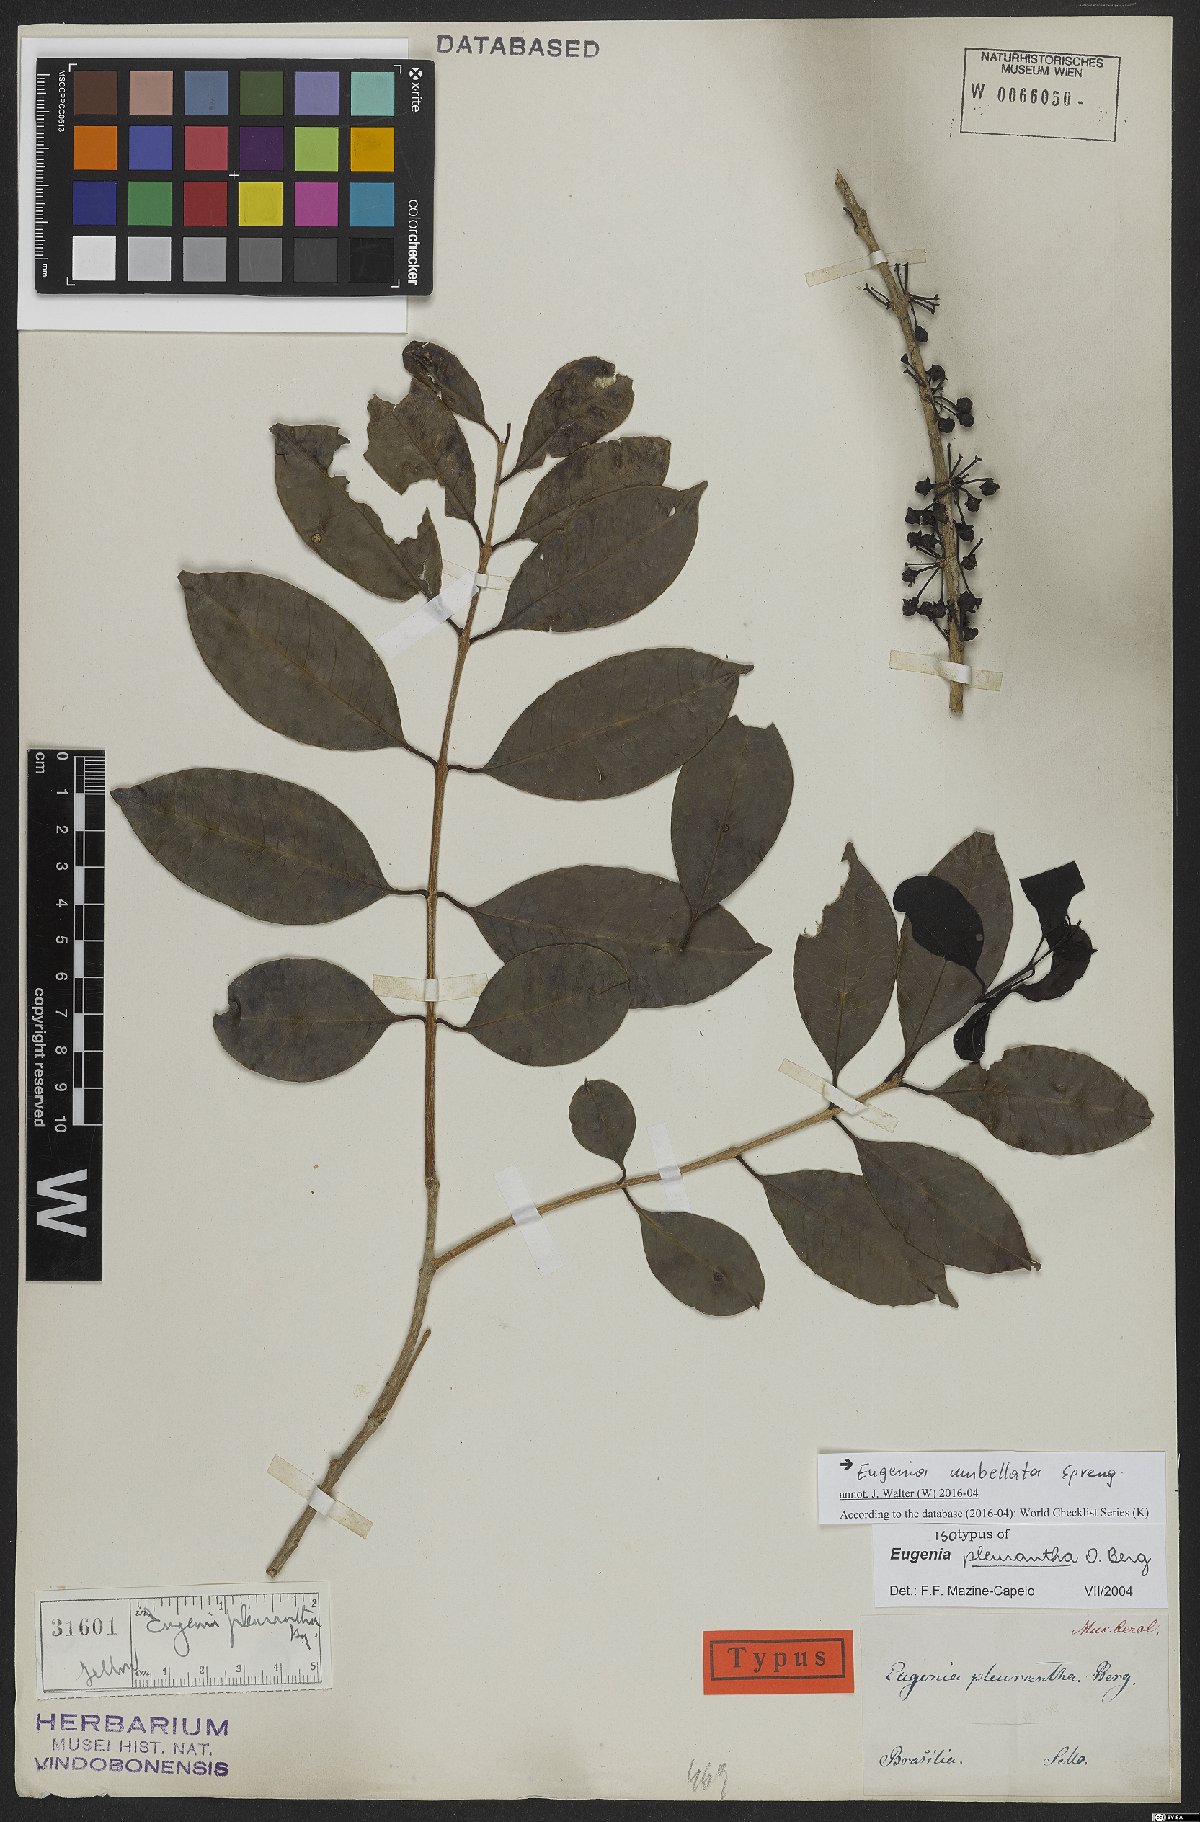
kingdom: Plantae
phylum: Tracheophyta
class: Magnoliopsida
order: Myrtales
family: Myrtaceae
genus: Eugenia
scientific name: Eugenia erythrocarpa
